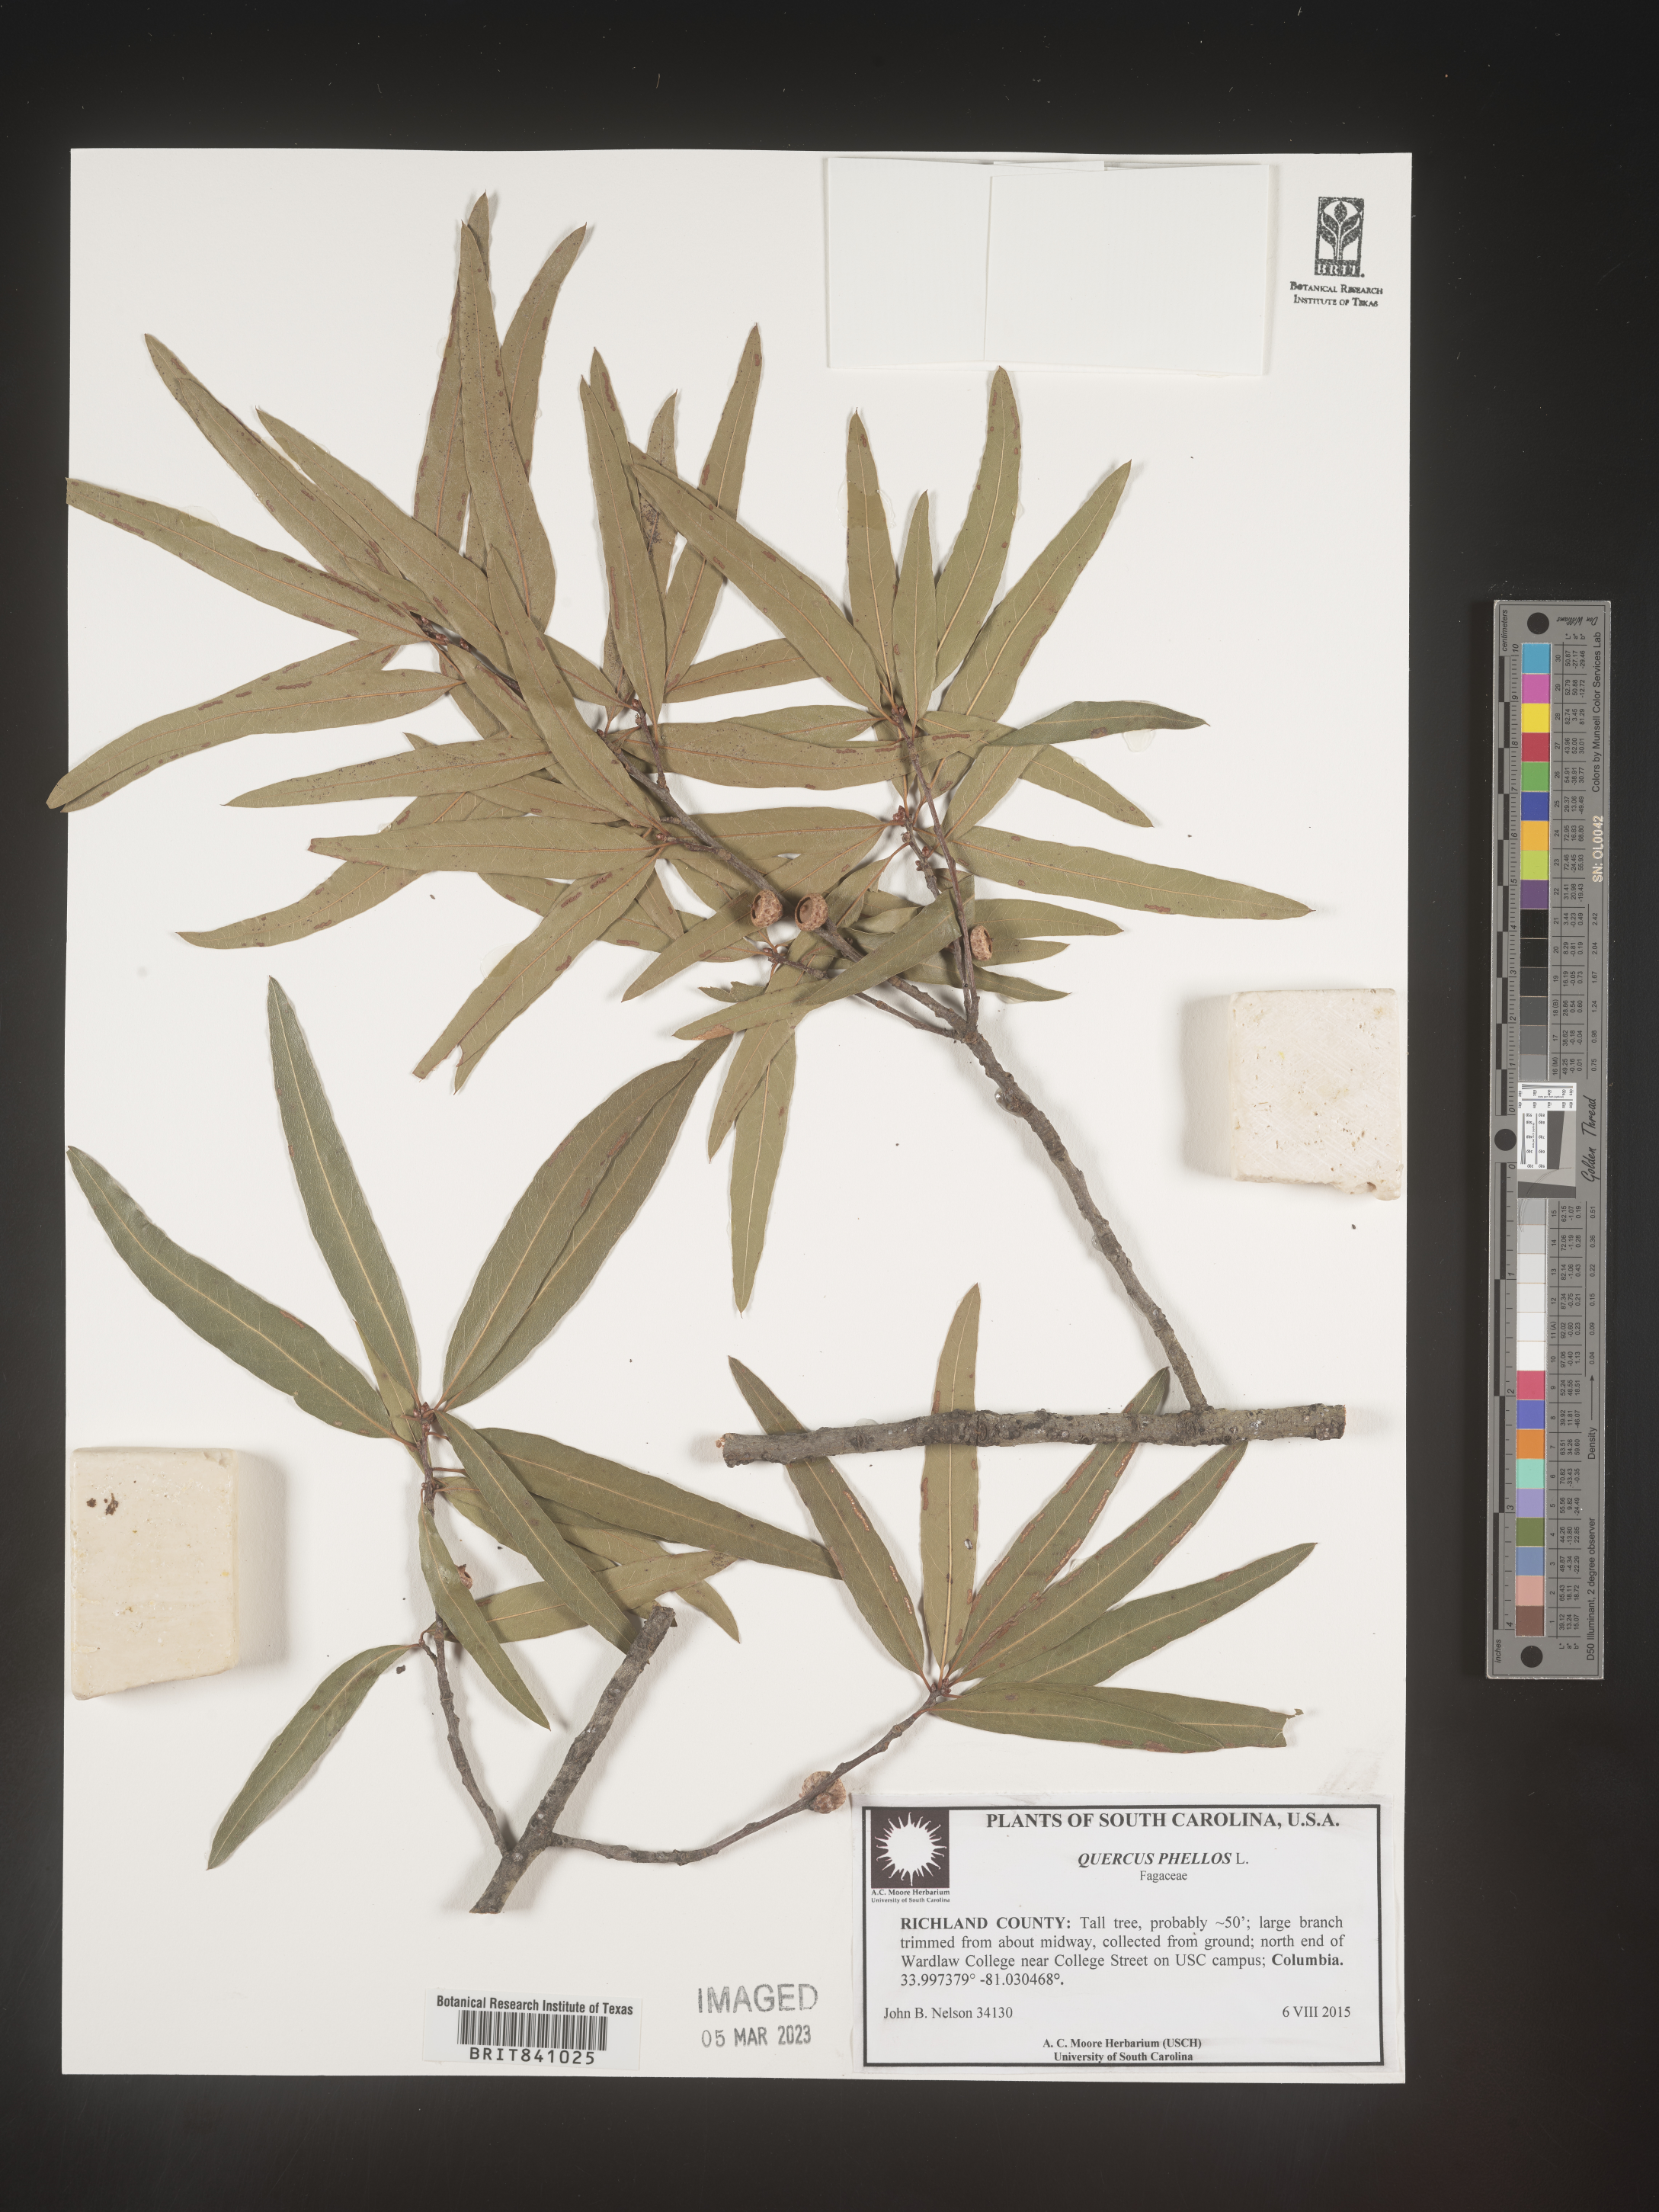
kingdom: Plantae
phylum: Tracheophyta
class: Magnoliopsida
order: Fagales
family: Fagaceae
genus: Quercus
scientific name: Quercus phellos
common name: Willow oak
